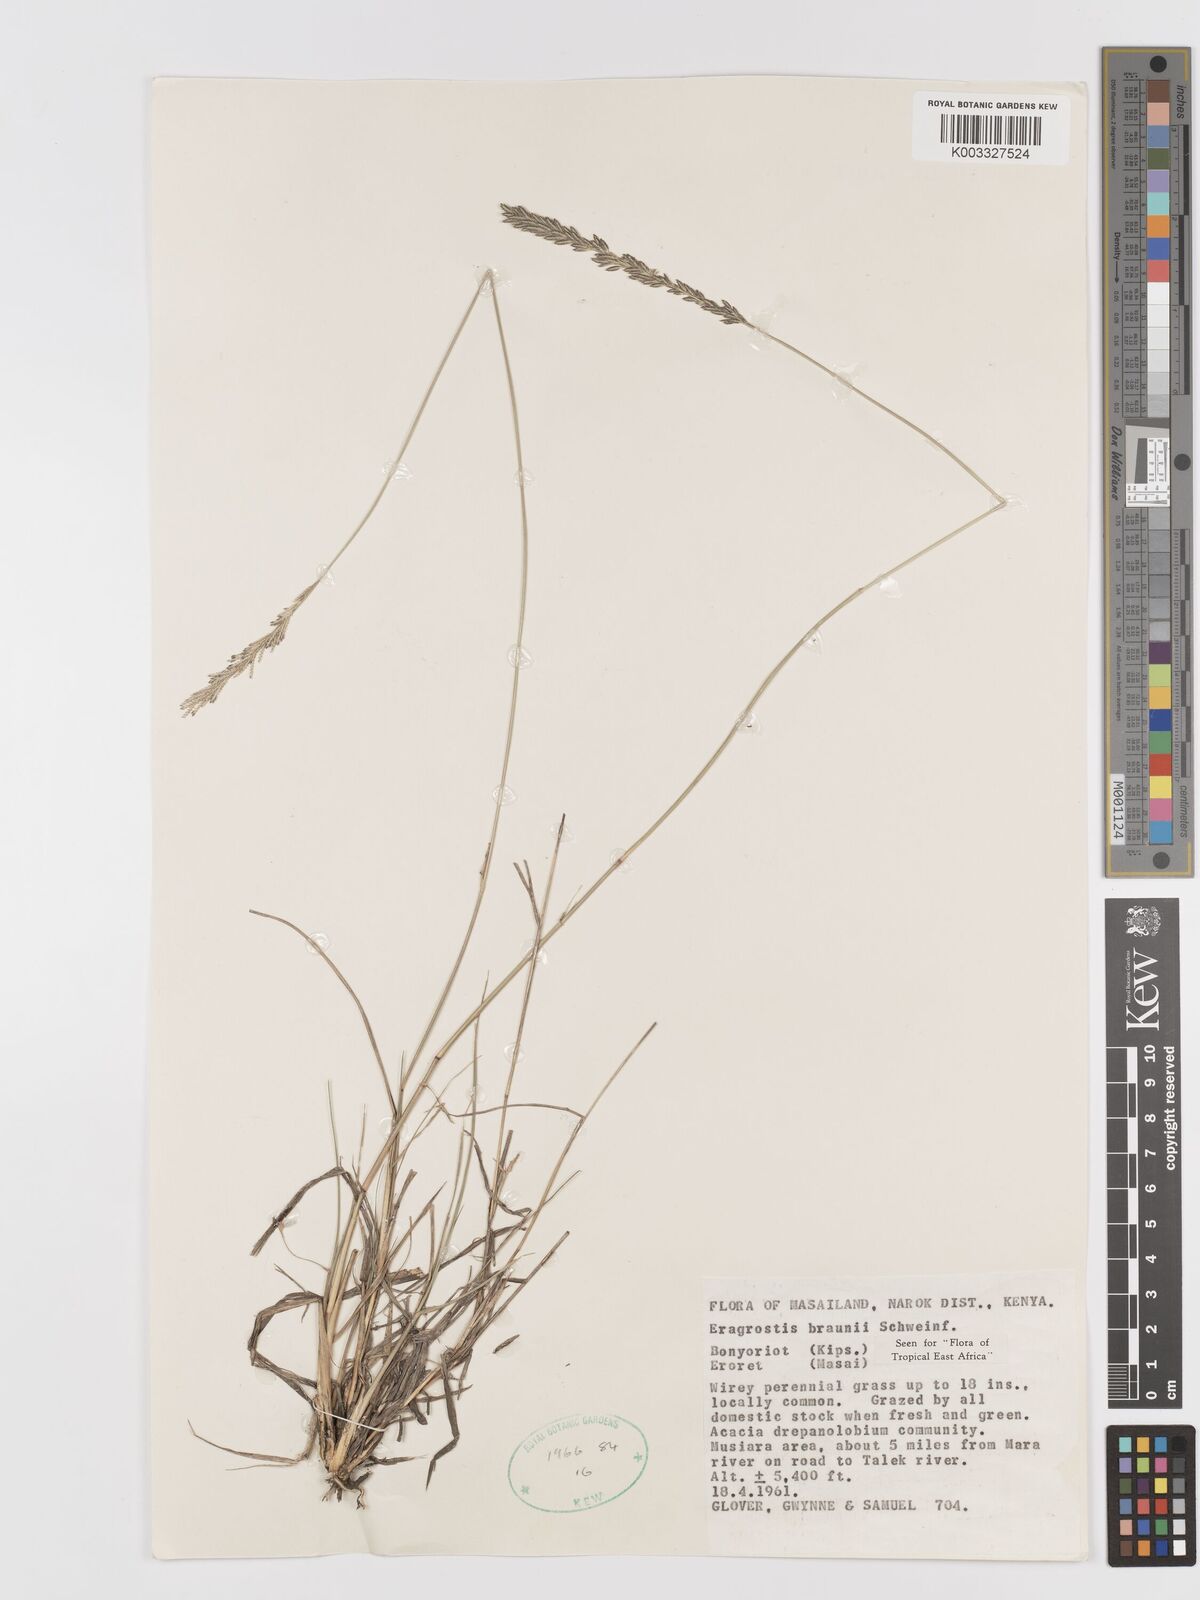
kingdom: Plantae
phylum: Tracheophyta
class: Liliopsida
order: Poales
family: Poaceae
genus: Eragrostis
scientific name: Eragrostis braunii
